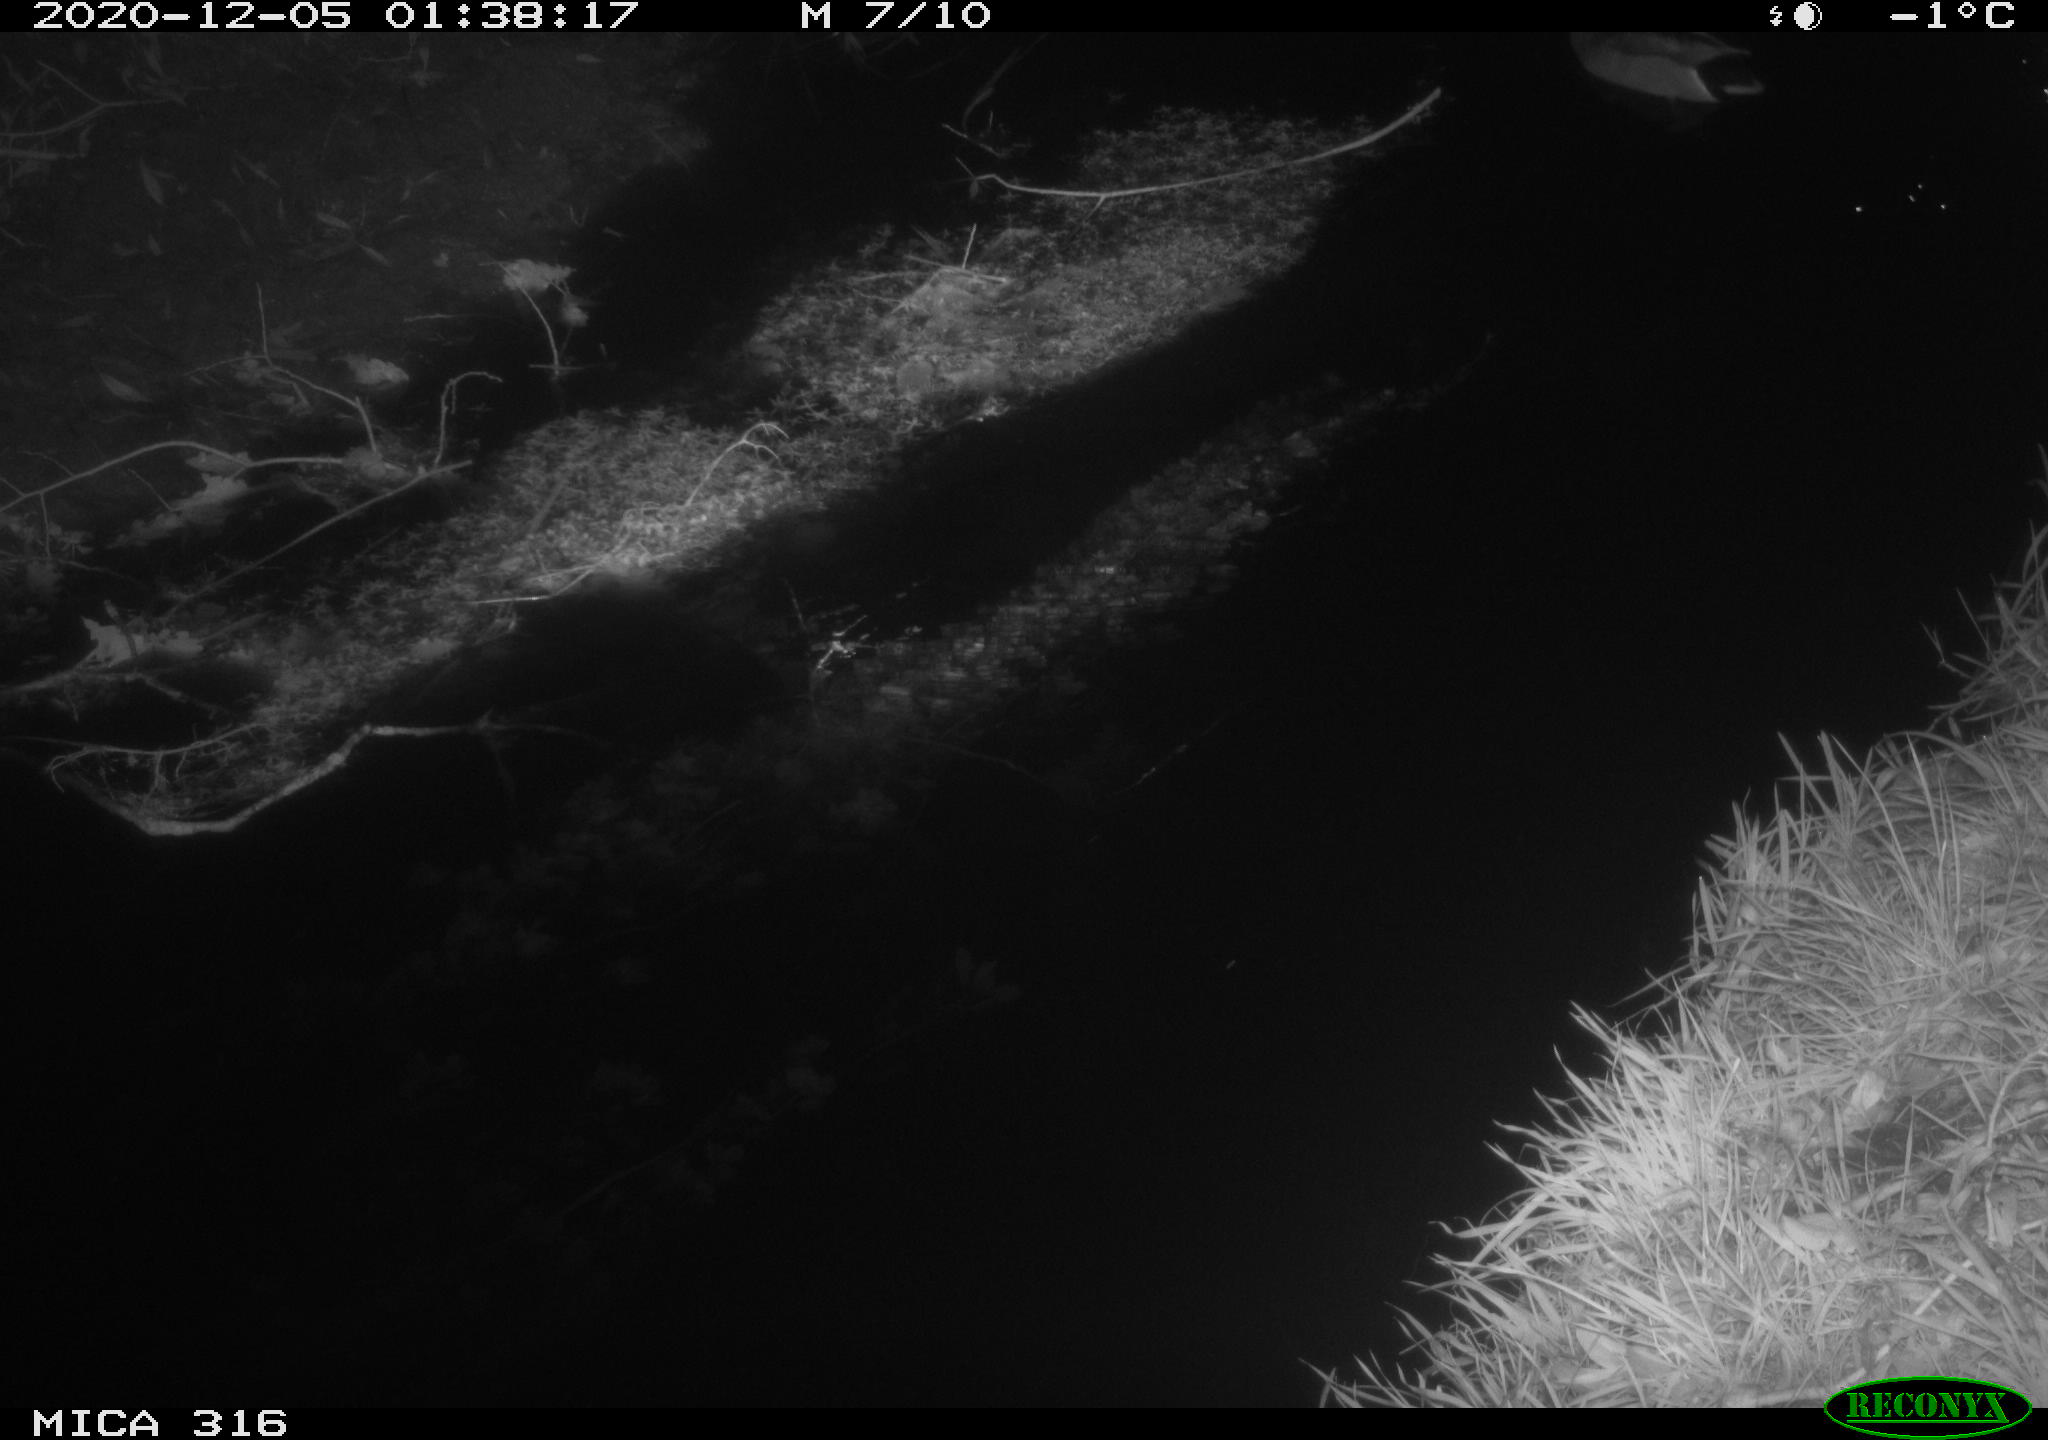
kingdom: Animalia
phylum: Chordata
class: Aves
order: Anseriformes
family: Anatidae
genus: Anas
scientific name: Anas platyrhynchos
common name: Mallard
